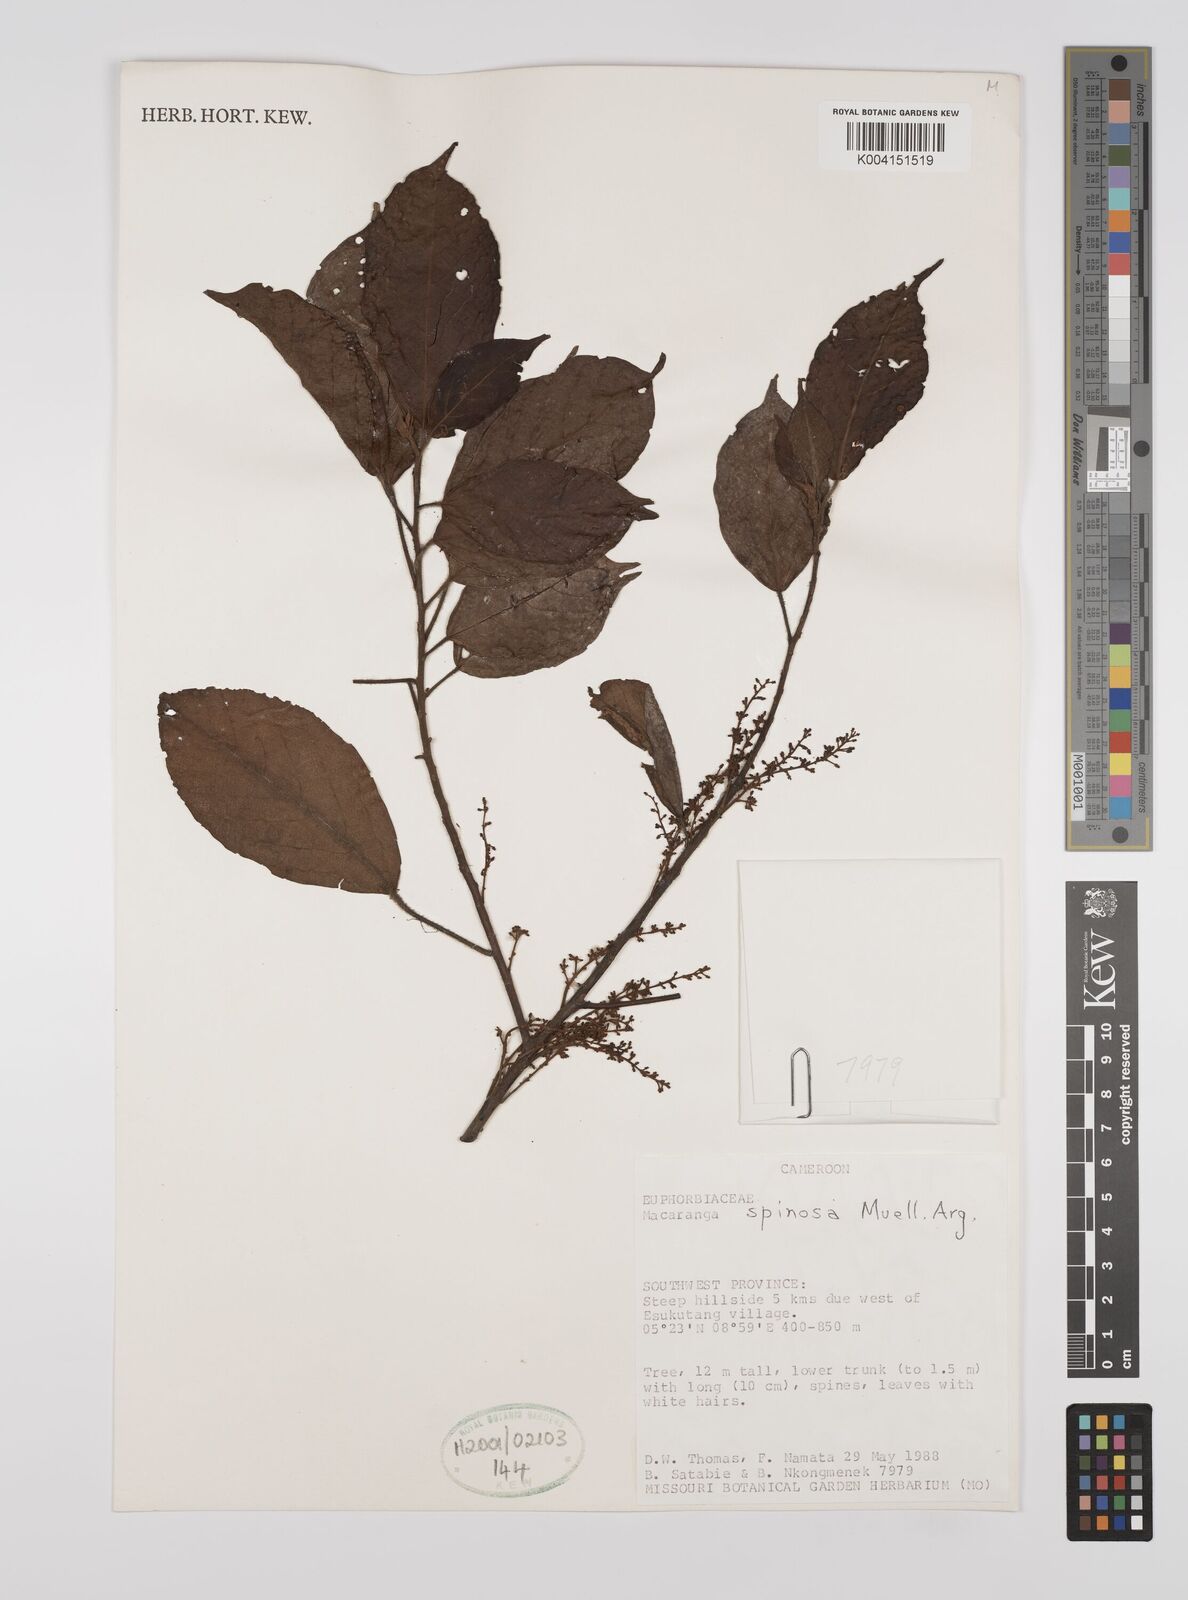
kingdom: Plantae
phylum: Tracheophyta
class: Magnoliopsida
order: Malpighiales
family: Euphorbiaceae
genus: Macaranga
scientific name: Macaranga spinosa
